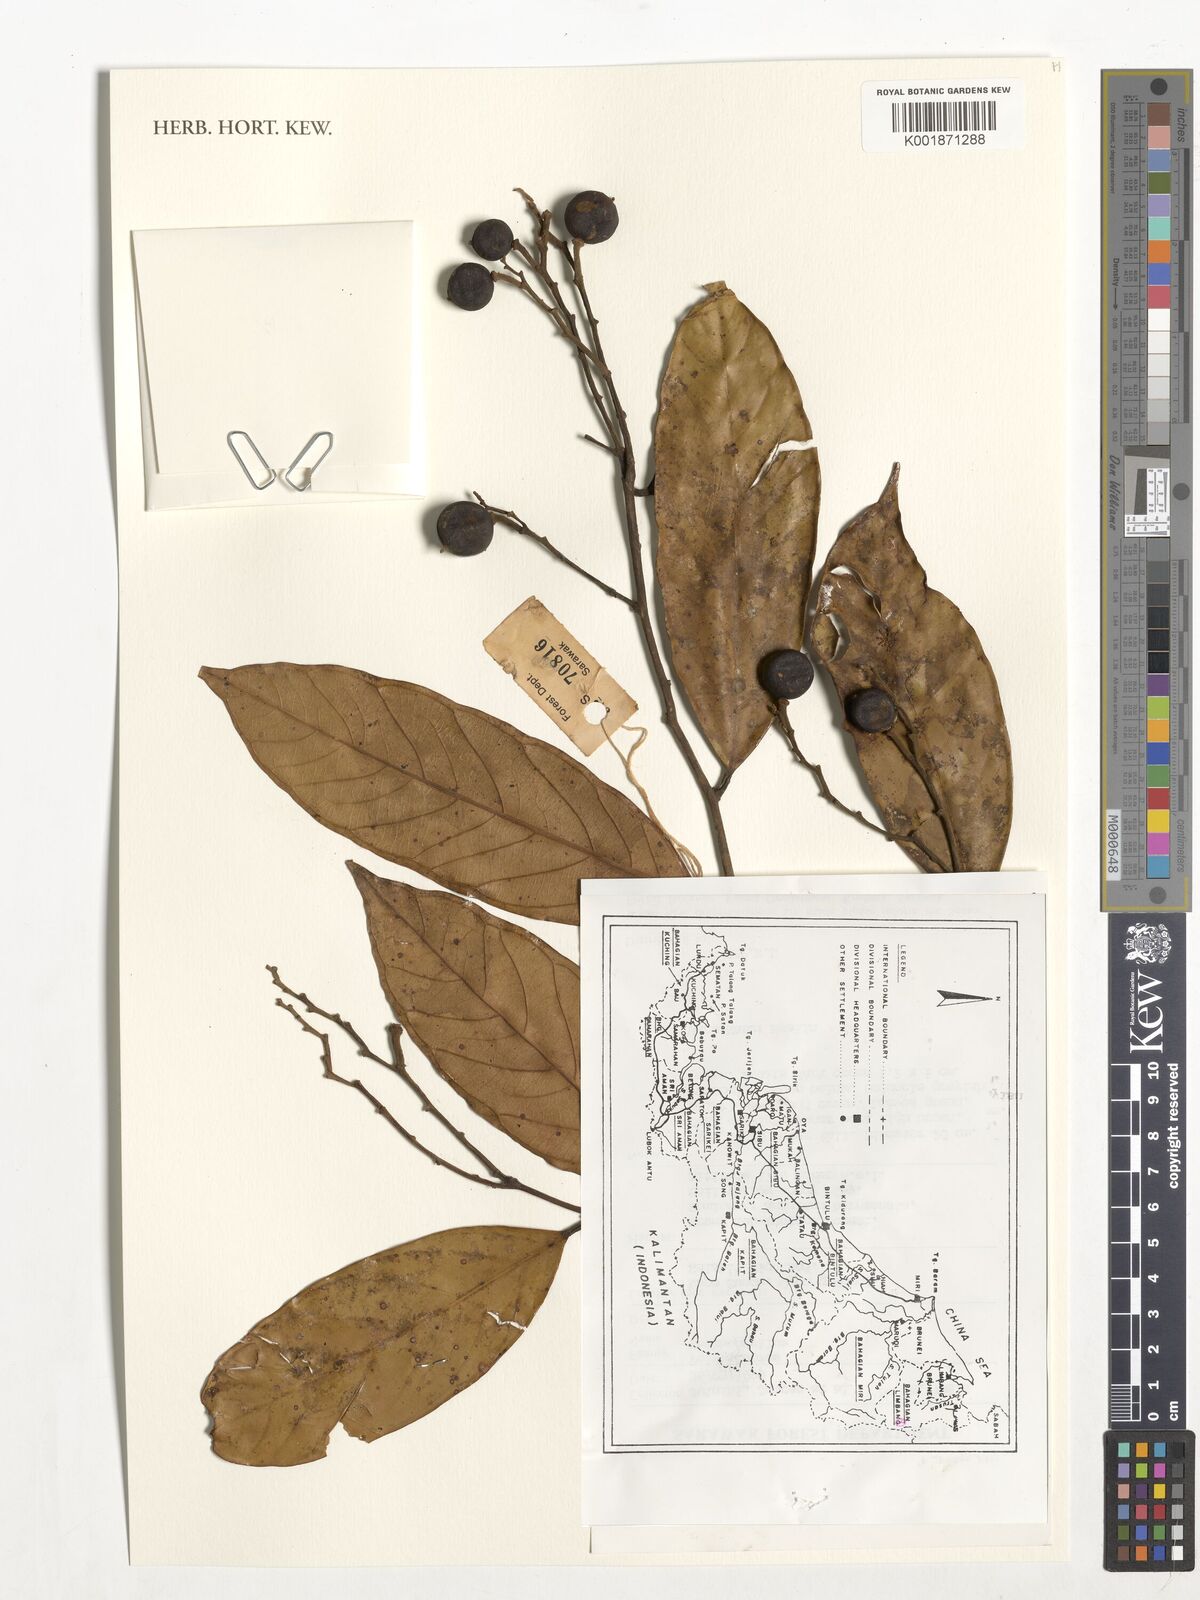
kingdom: Plantae
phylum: Tracheophyta
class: Magnoliopsida
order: Fabales
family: Polygalaceae
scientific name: Polygalaceae
